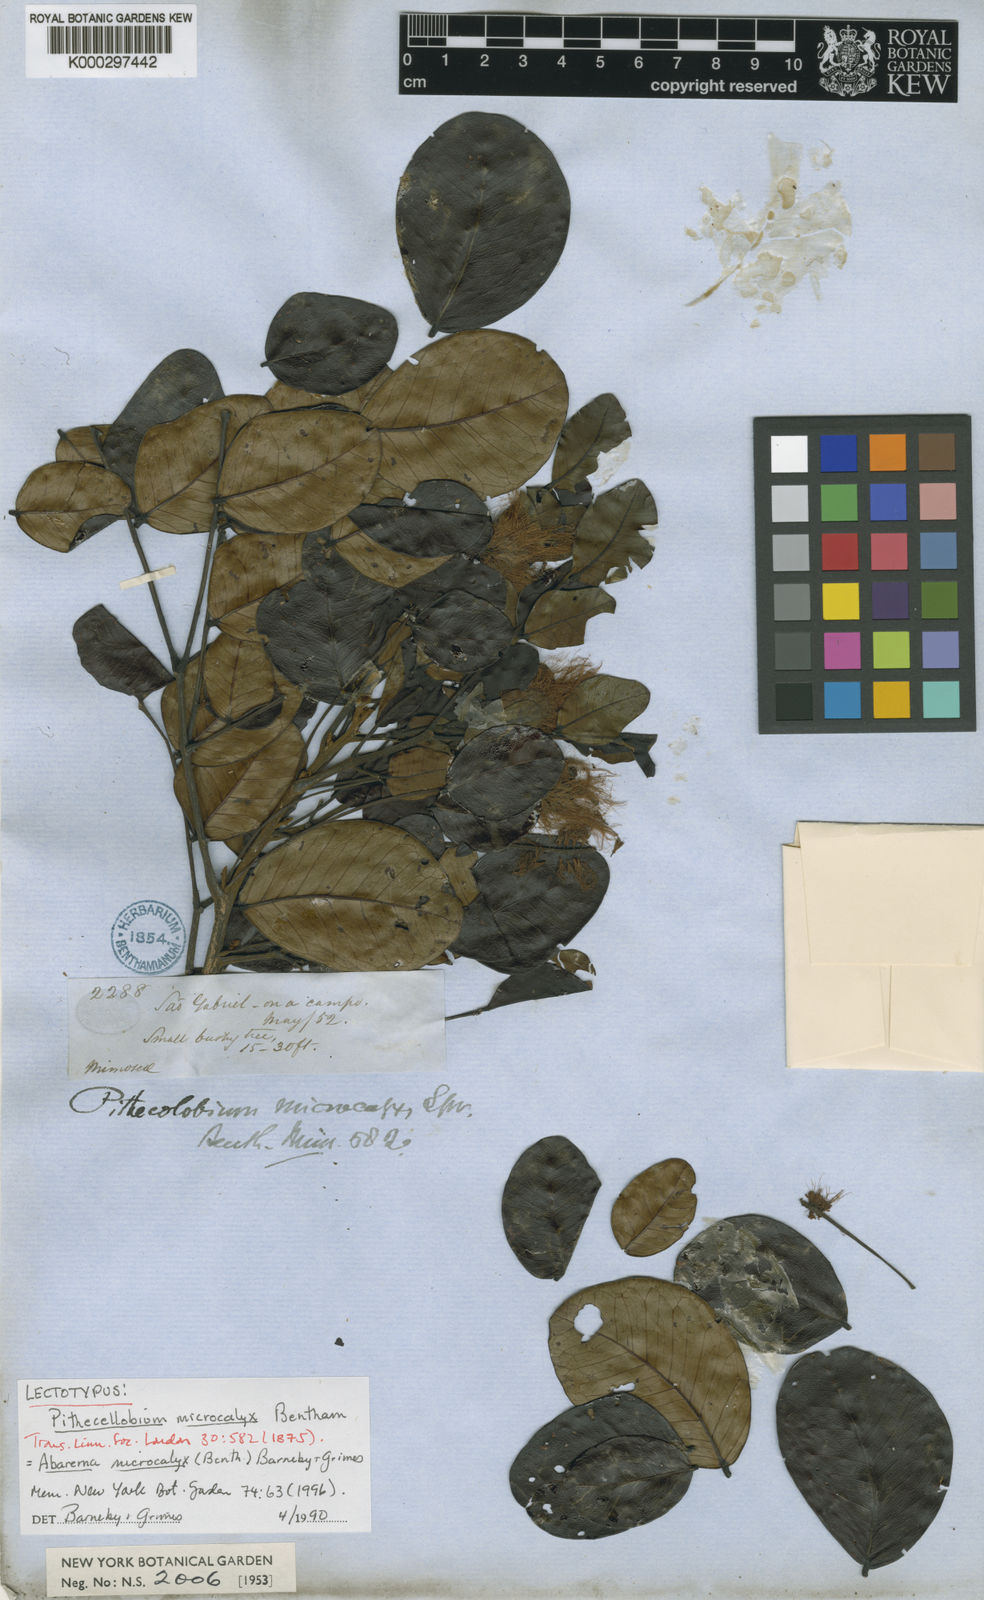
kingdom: Plantae
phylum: Tracheophyta
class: Magnoliopsida
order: Fabales
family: Fabaceae
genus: Jupunba
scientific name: Jupunba microcalyx
